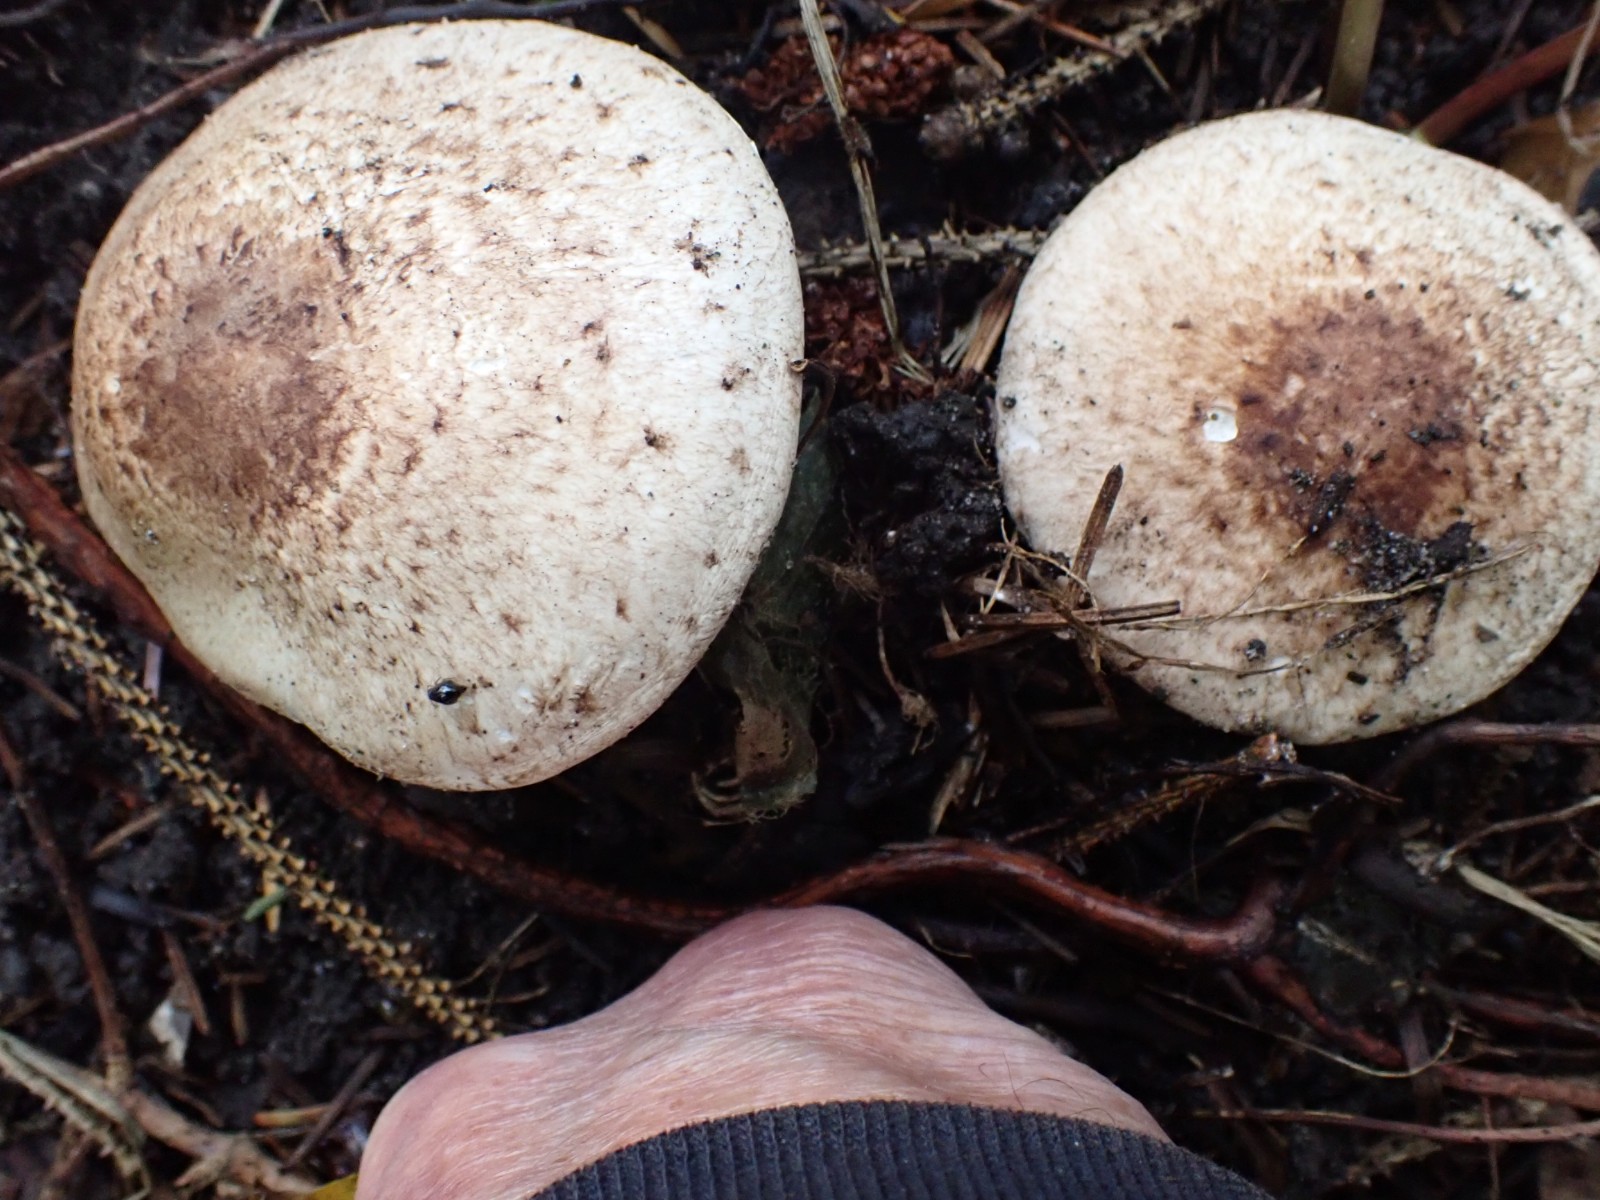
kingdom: Fungi
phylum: Basidiomycota
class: Agaricomycetes
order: Agaricales
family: Agaricaceae
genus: Agaricus
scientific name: Agaricus impudicus
